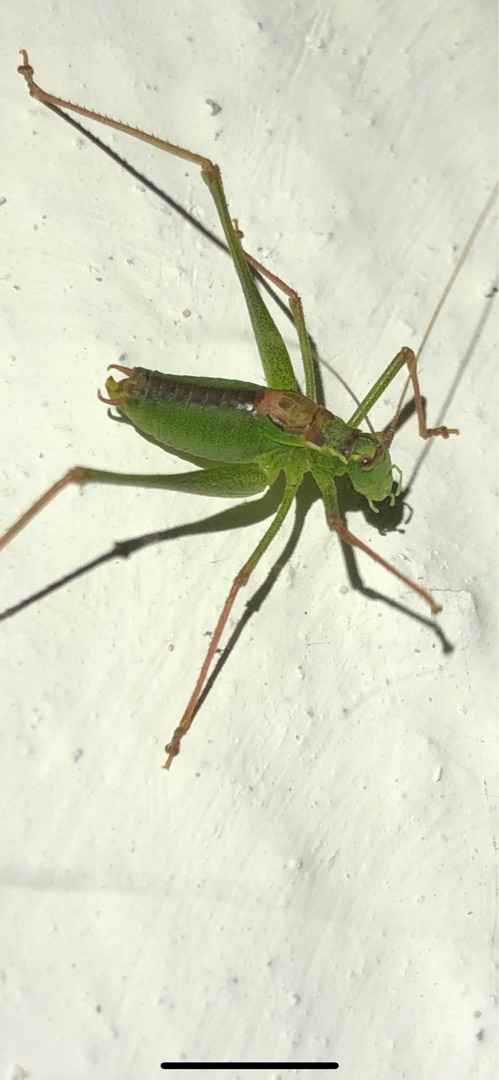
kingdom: Animalia
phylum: Arthropoda
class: Insecta
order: Orthoptera
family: Tettigoniidae
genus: Leptophyes
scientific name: Leptophyes punctatissima
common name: Krumknivgræshoppe
